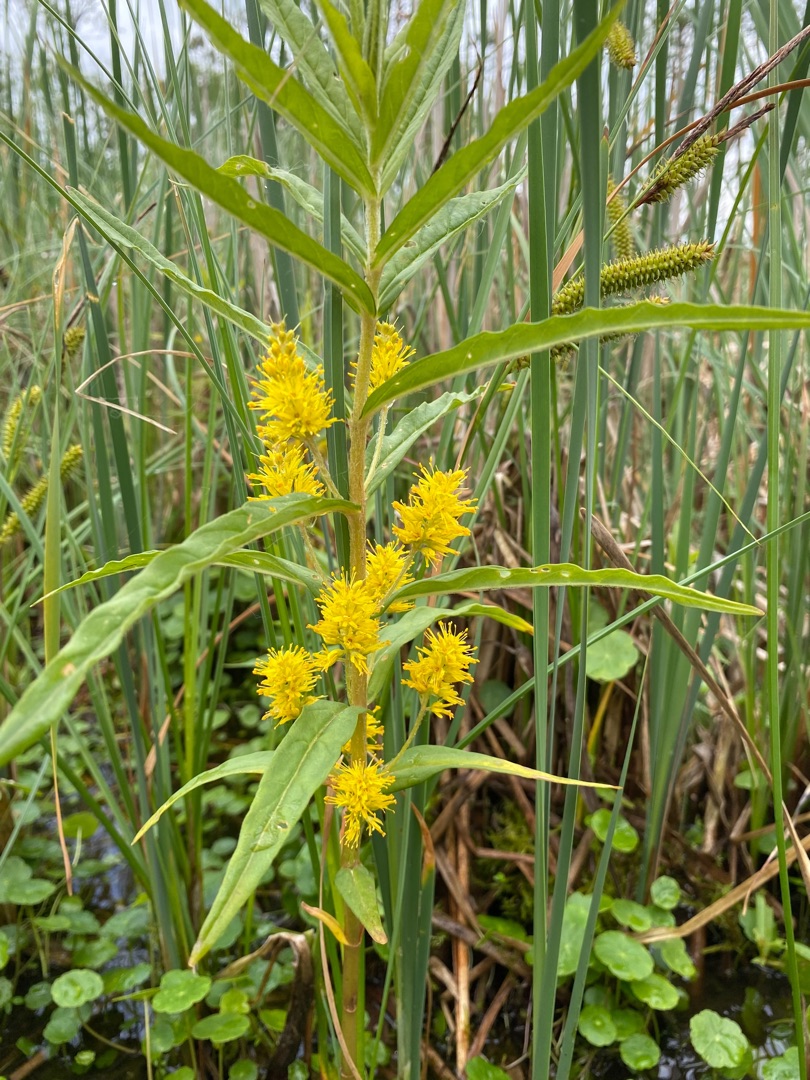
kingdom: Plantae
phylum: Tracheophyta
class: Magnoliopsida
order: Ericales
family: Primulaceae
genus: Lysimachia
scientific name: Lysimachia thyrsiflora
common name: Dusk-fredløs
